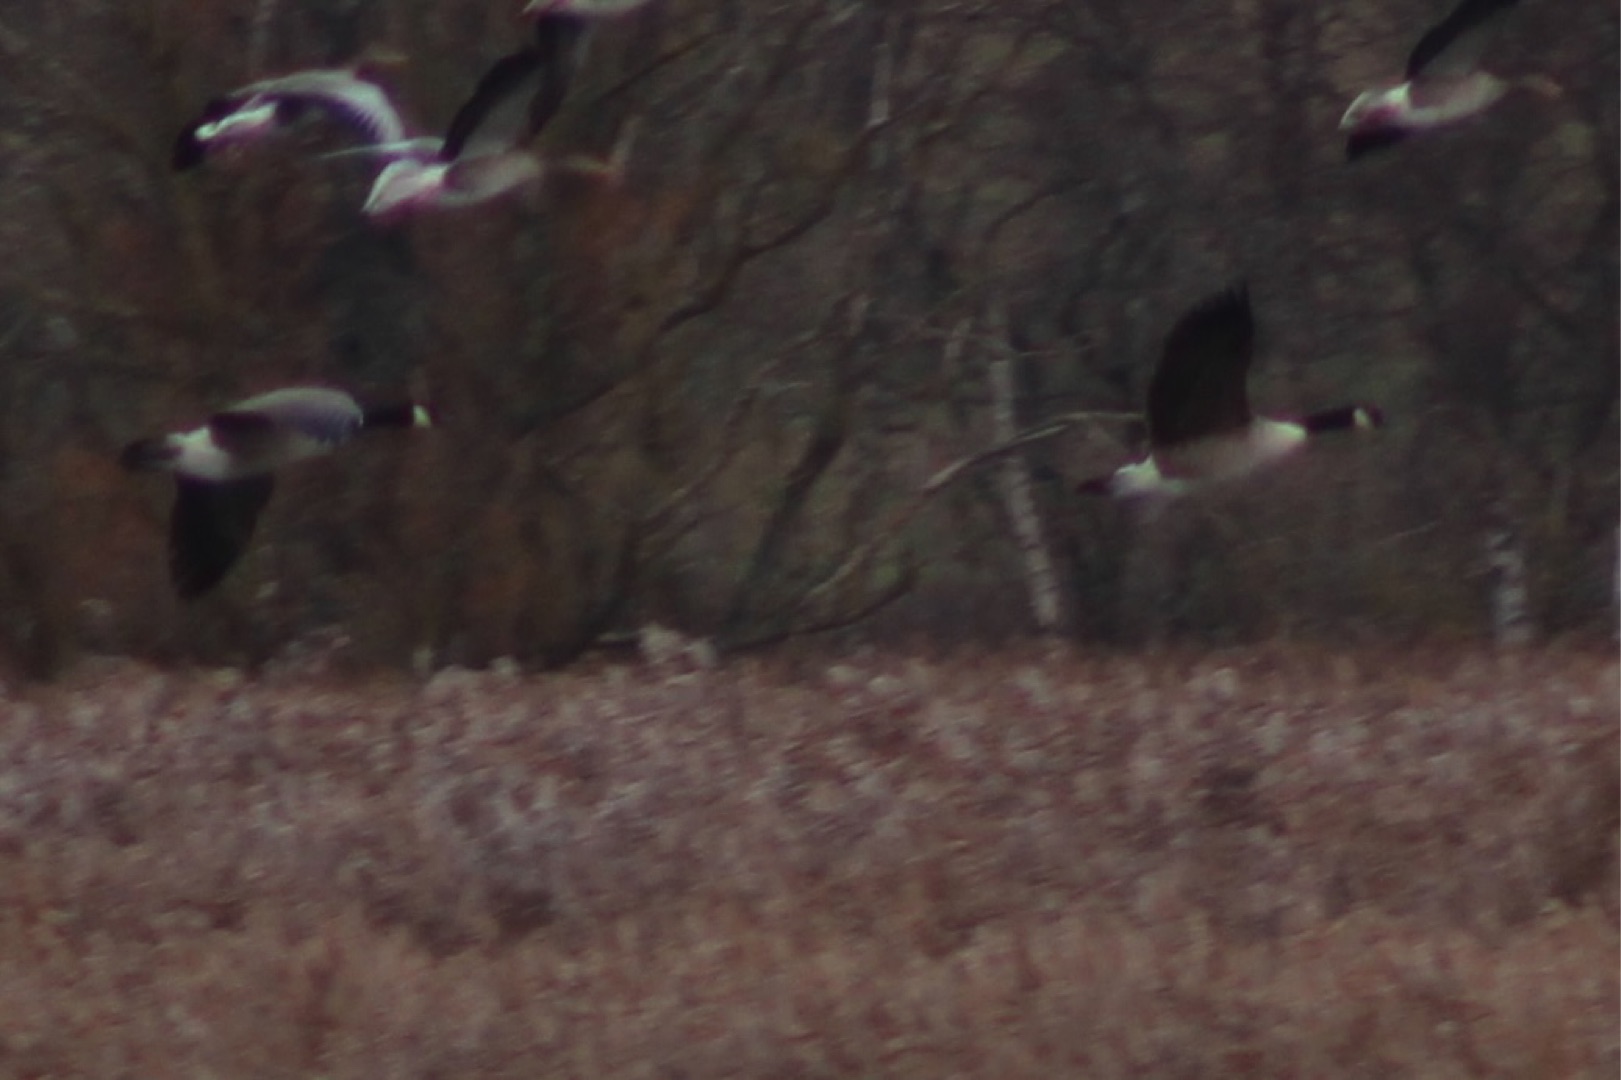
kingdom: Animalia
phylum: Chordata
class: Aves
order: Anseriformes
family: Anatidae
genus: Branta
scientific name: Branta canadensis
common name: Canadagås
